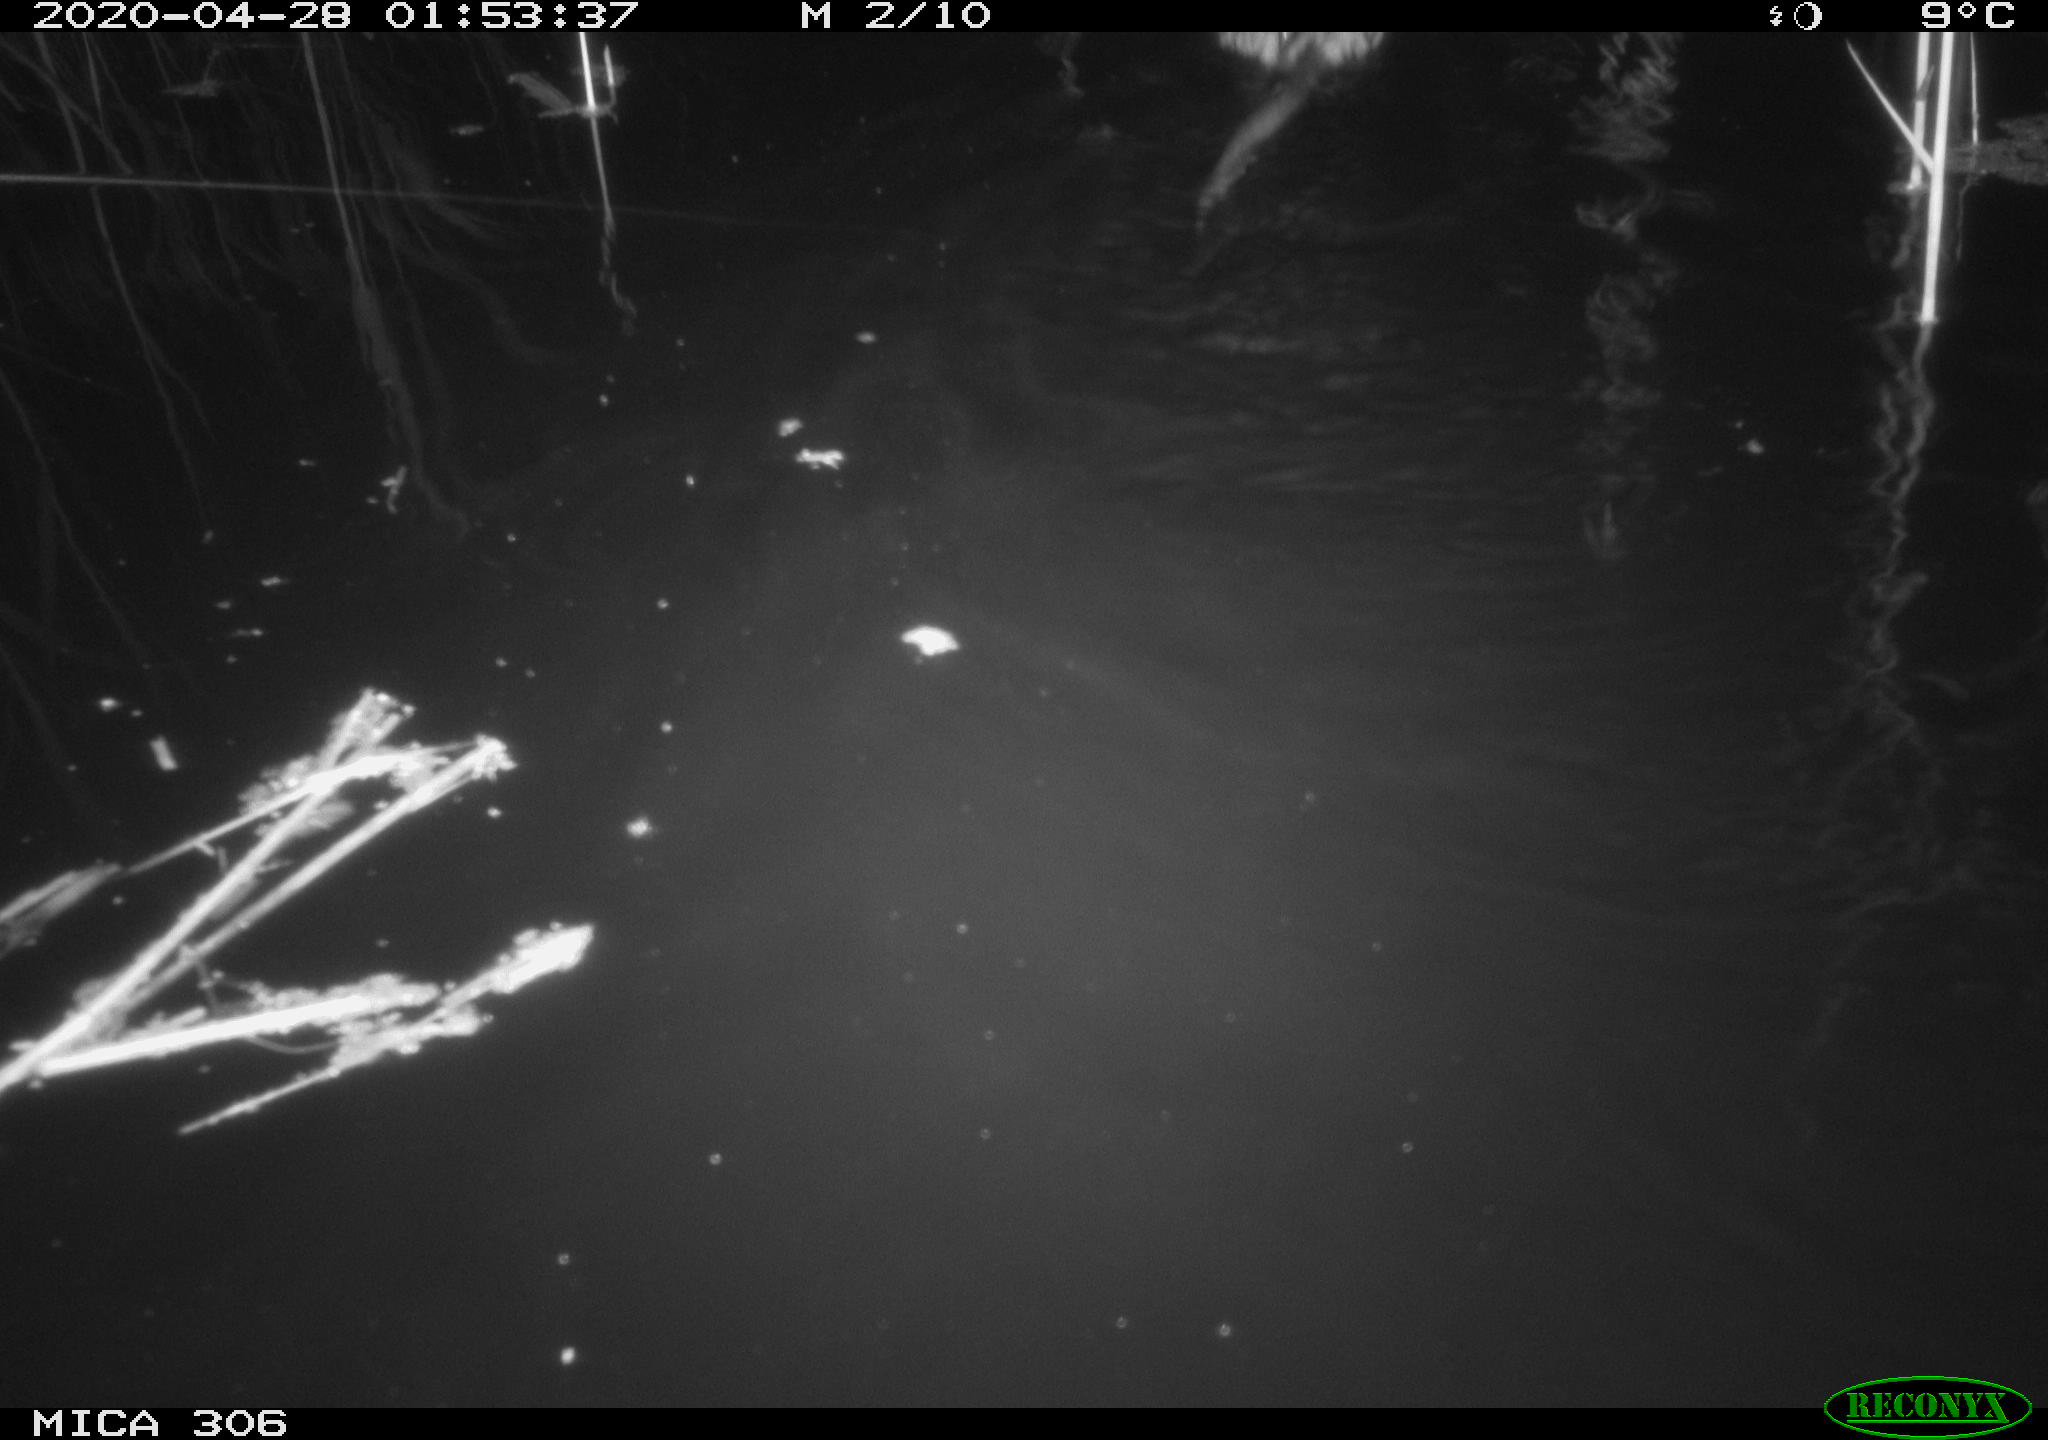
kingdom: Animalia
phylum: Chordata
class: Mammalia
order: Rodentia
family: Cricetidae
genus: Ondatra
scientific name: Ondatra zibethicus
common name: Muskrat
